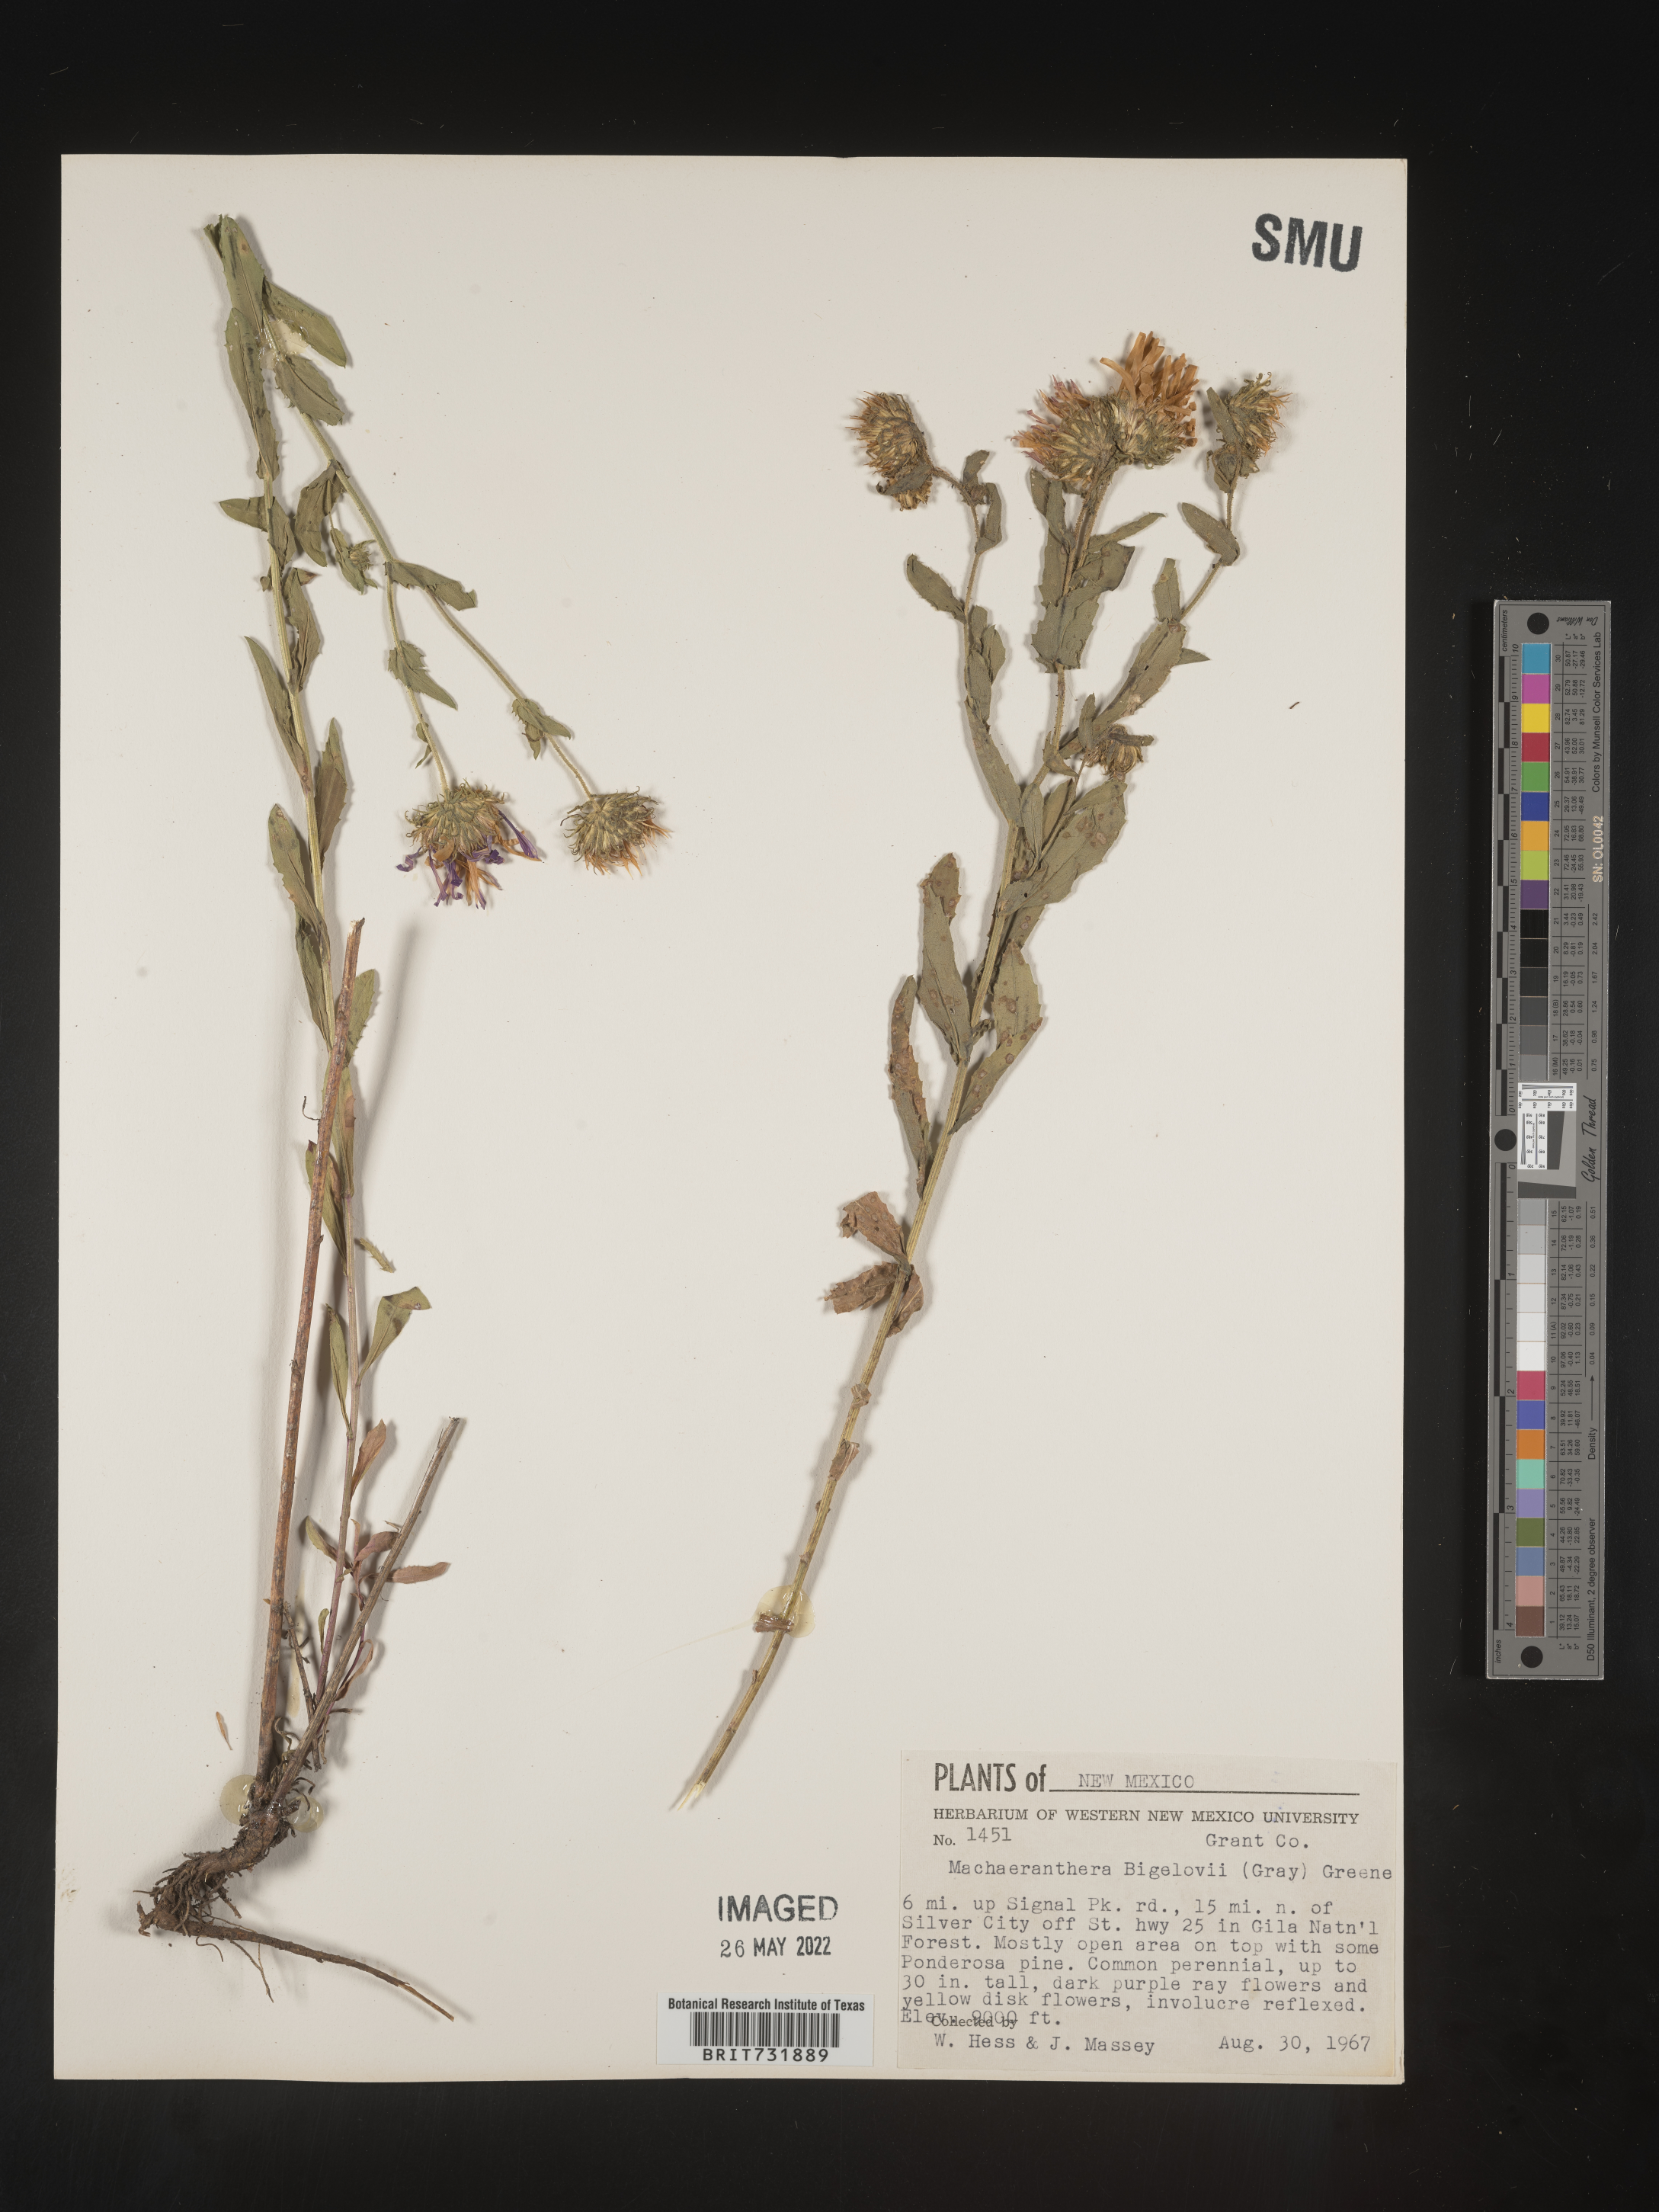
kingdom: Plantae
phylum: Tracheophyta
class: Magnoliopsida
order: Asterales
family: Asteraceae
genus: Dieteria
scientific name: Dieteria bigelovii
